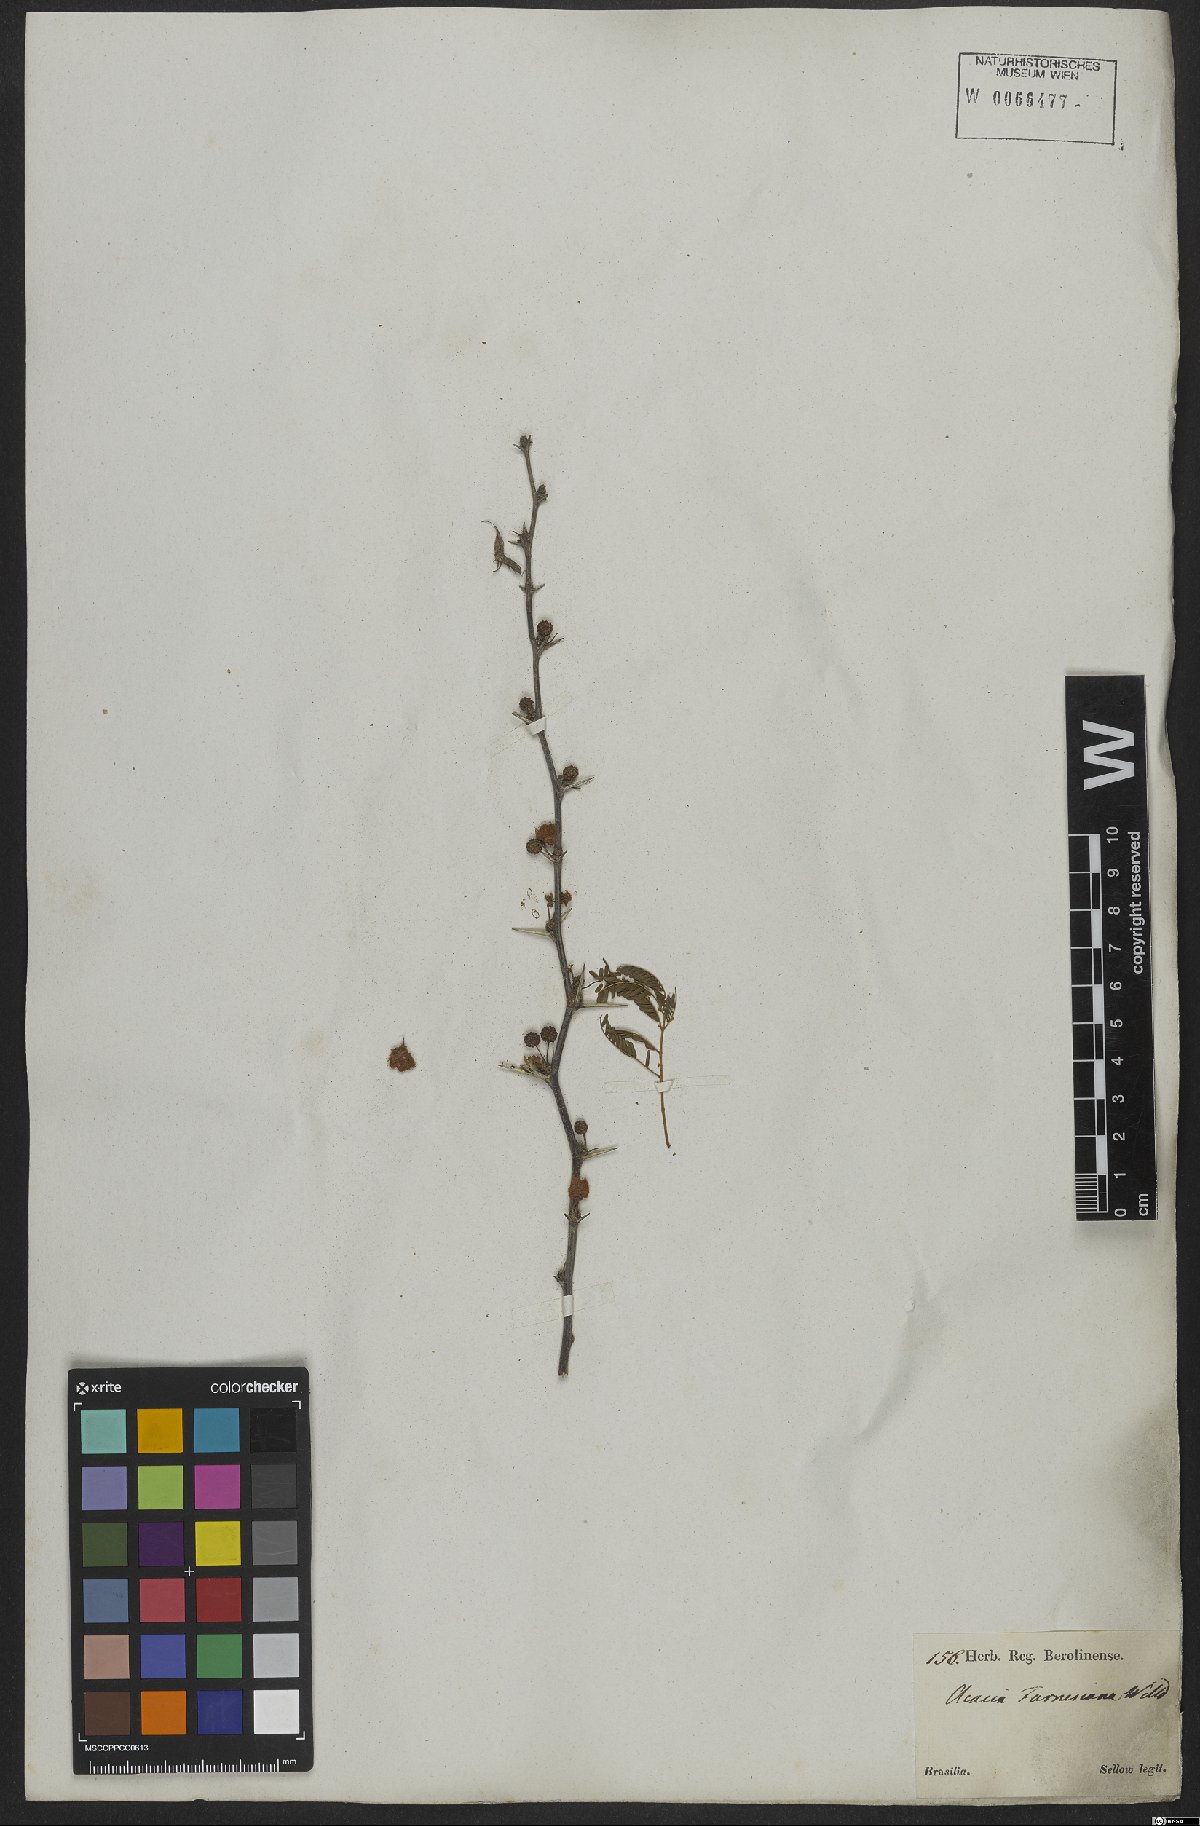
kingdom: Plantae
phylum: Tracheophyta
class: Magnoliopsida
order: Fabales
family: Fabaceae
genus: Vachellia
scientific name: Vachellia farnesiana
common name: Sweet acacia
